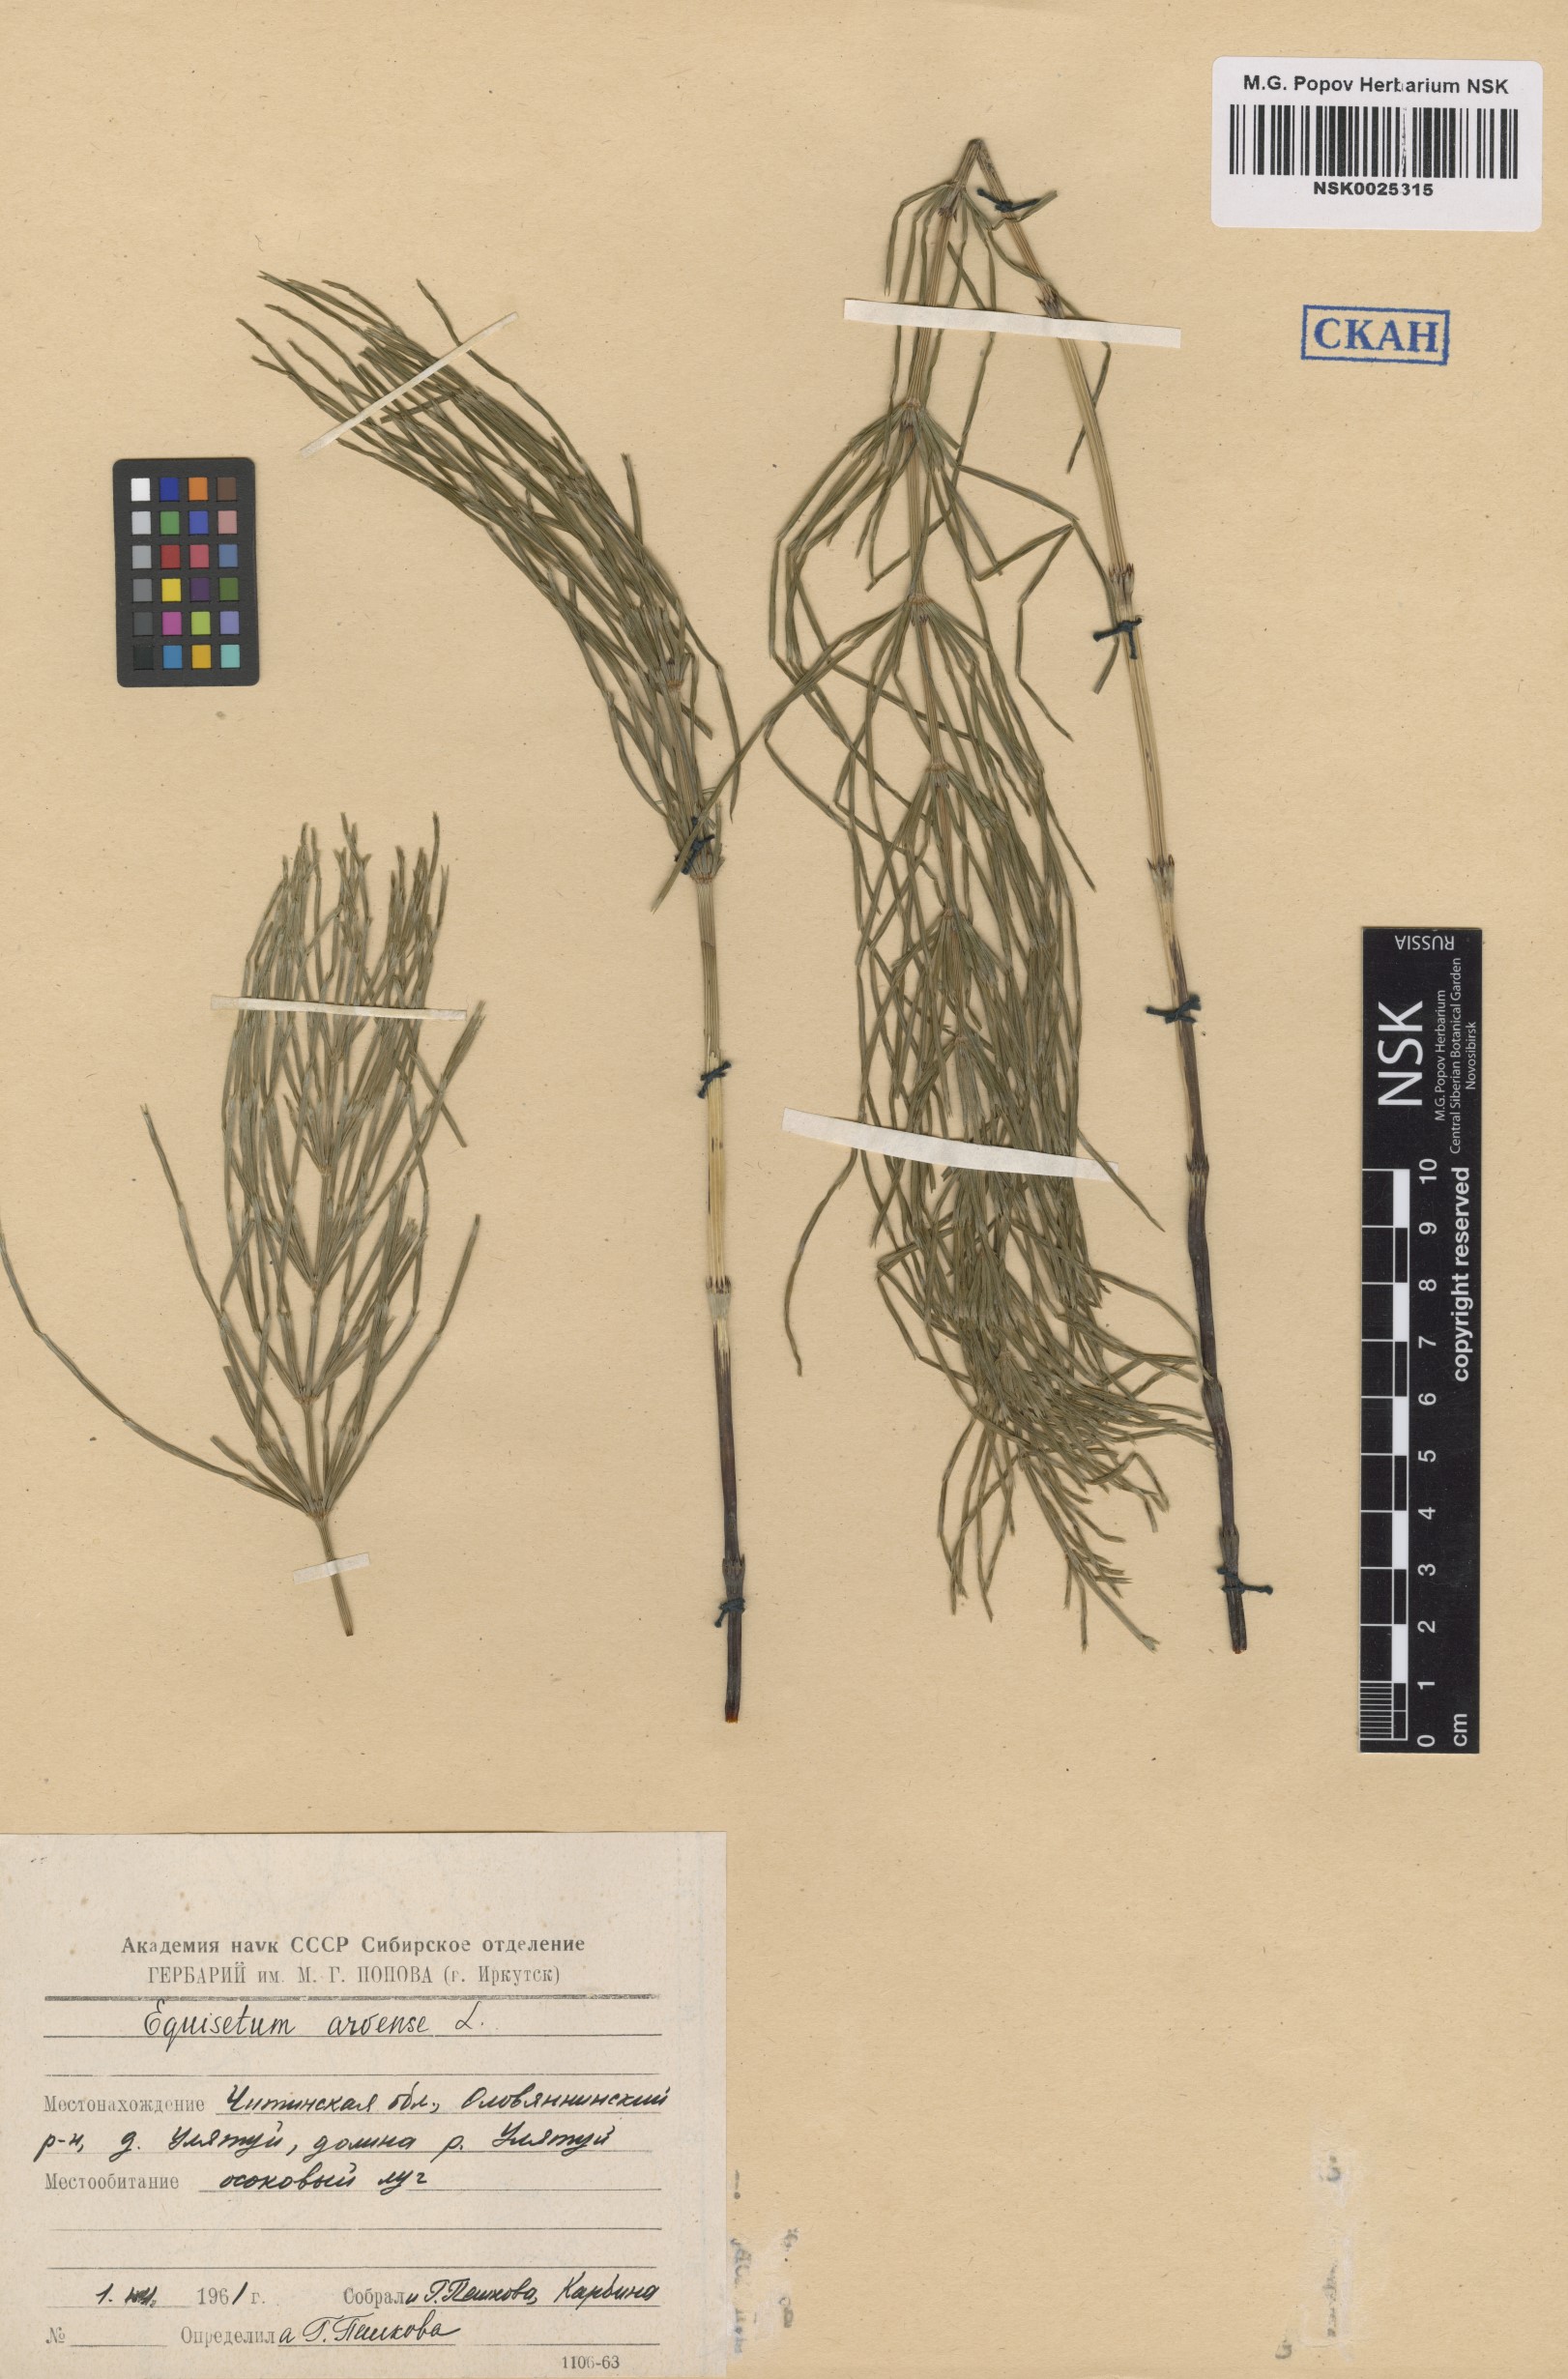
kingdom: Plantae
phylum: Tracheophyta
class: Polypodiopsida
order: Equisetales
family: Equisetaceae
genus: Equisetum
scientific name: Equisetum arvense
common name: Field horsetail
